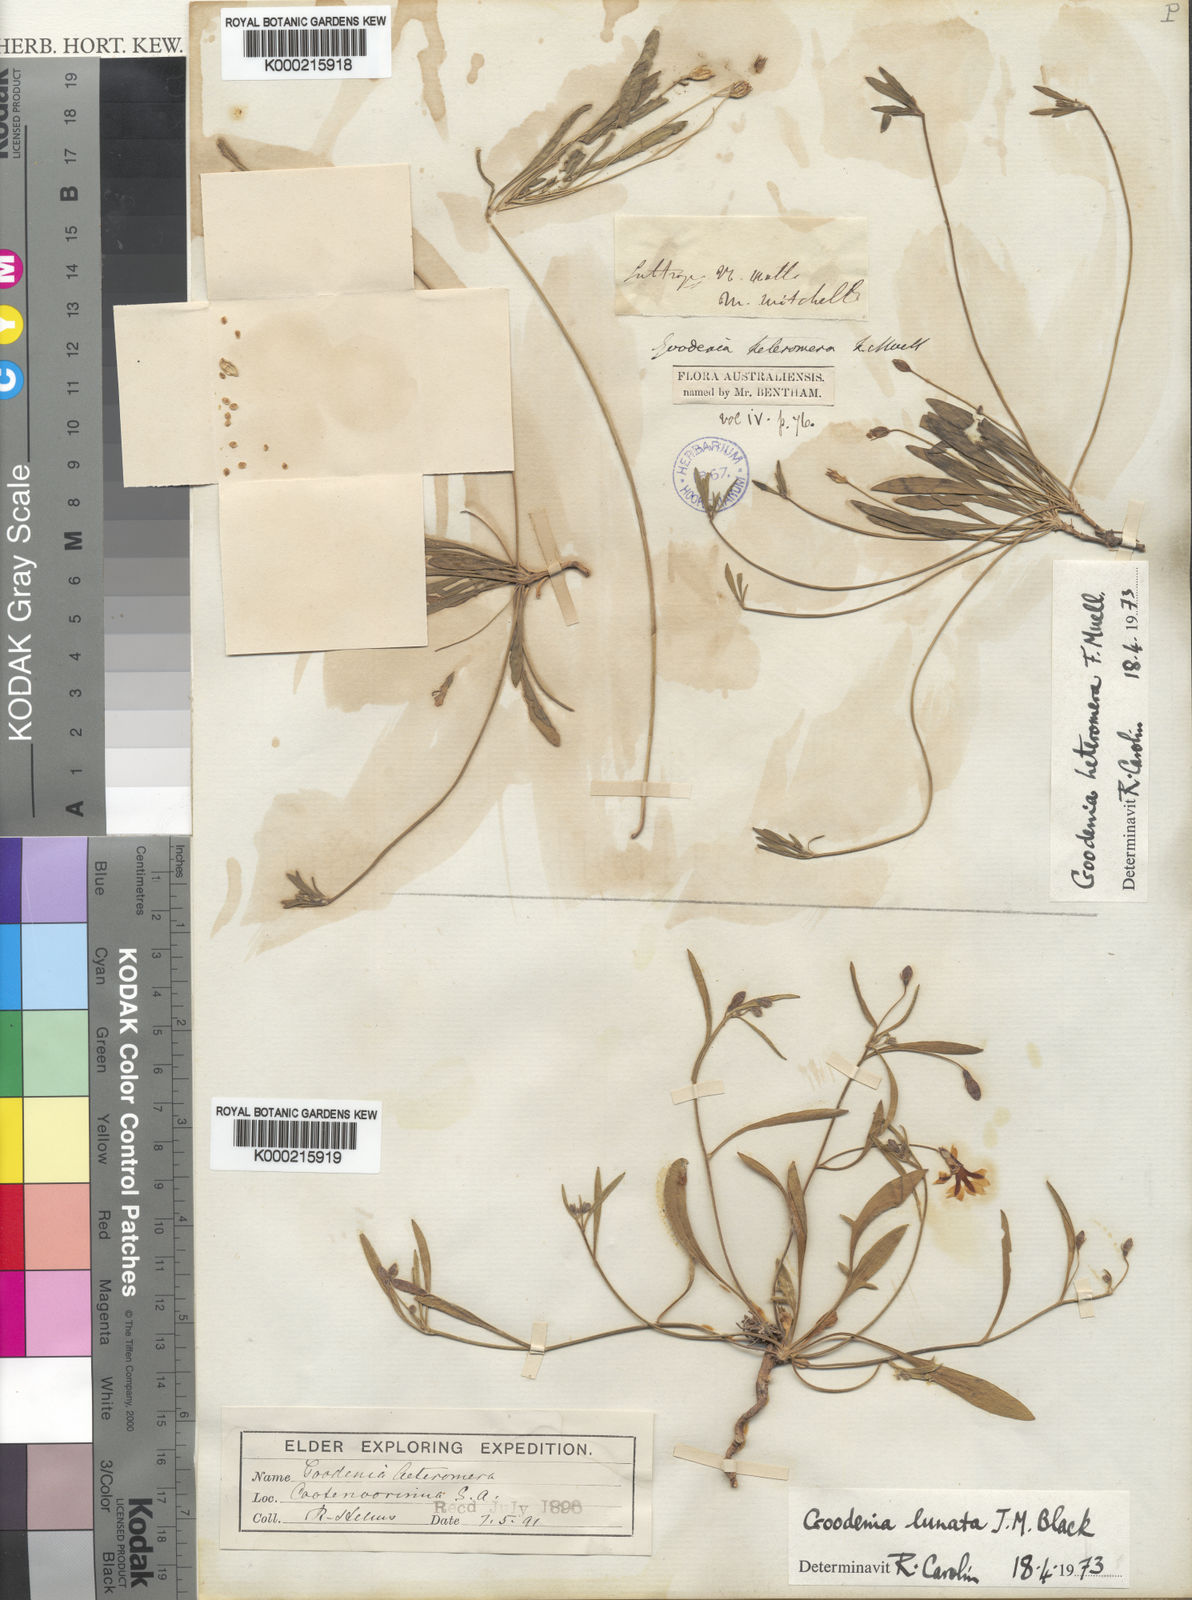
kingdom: Plantae
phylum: Tracheophyta
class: Magnoliopsida
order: Asterales
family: Goodeniaceae
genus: Goodenia
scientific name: Goodenia heteromera
